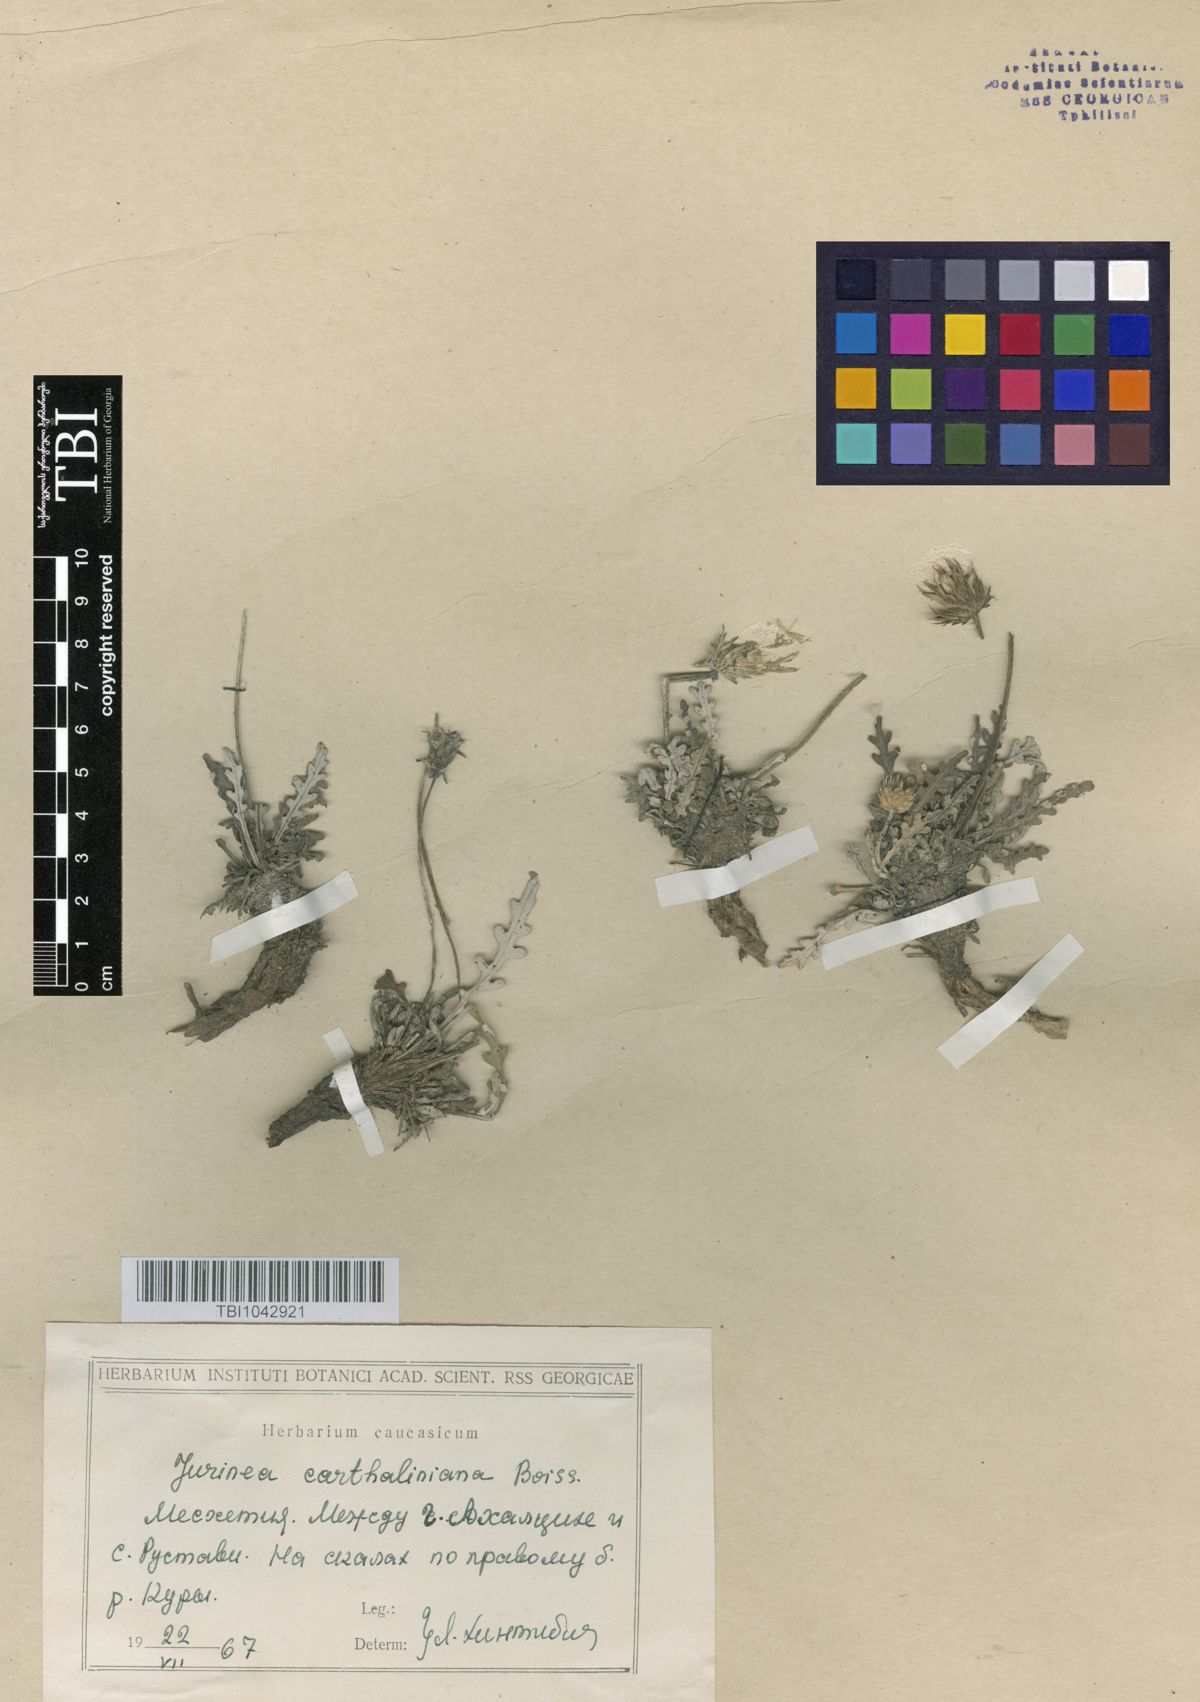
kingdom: Plantae
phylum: Tracheophyta
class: Magnoliopsida
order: Asterales
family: Asteraceae
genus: Jurinea
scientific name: Jurinea cartaliniana
